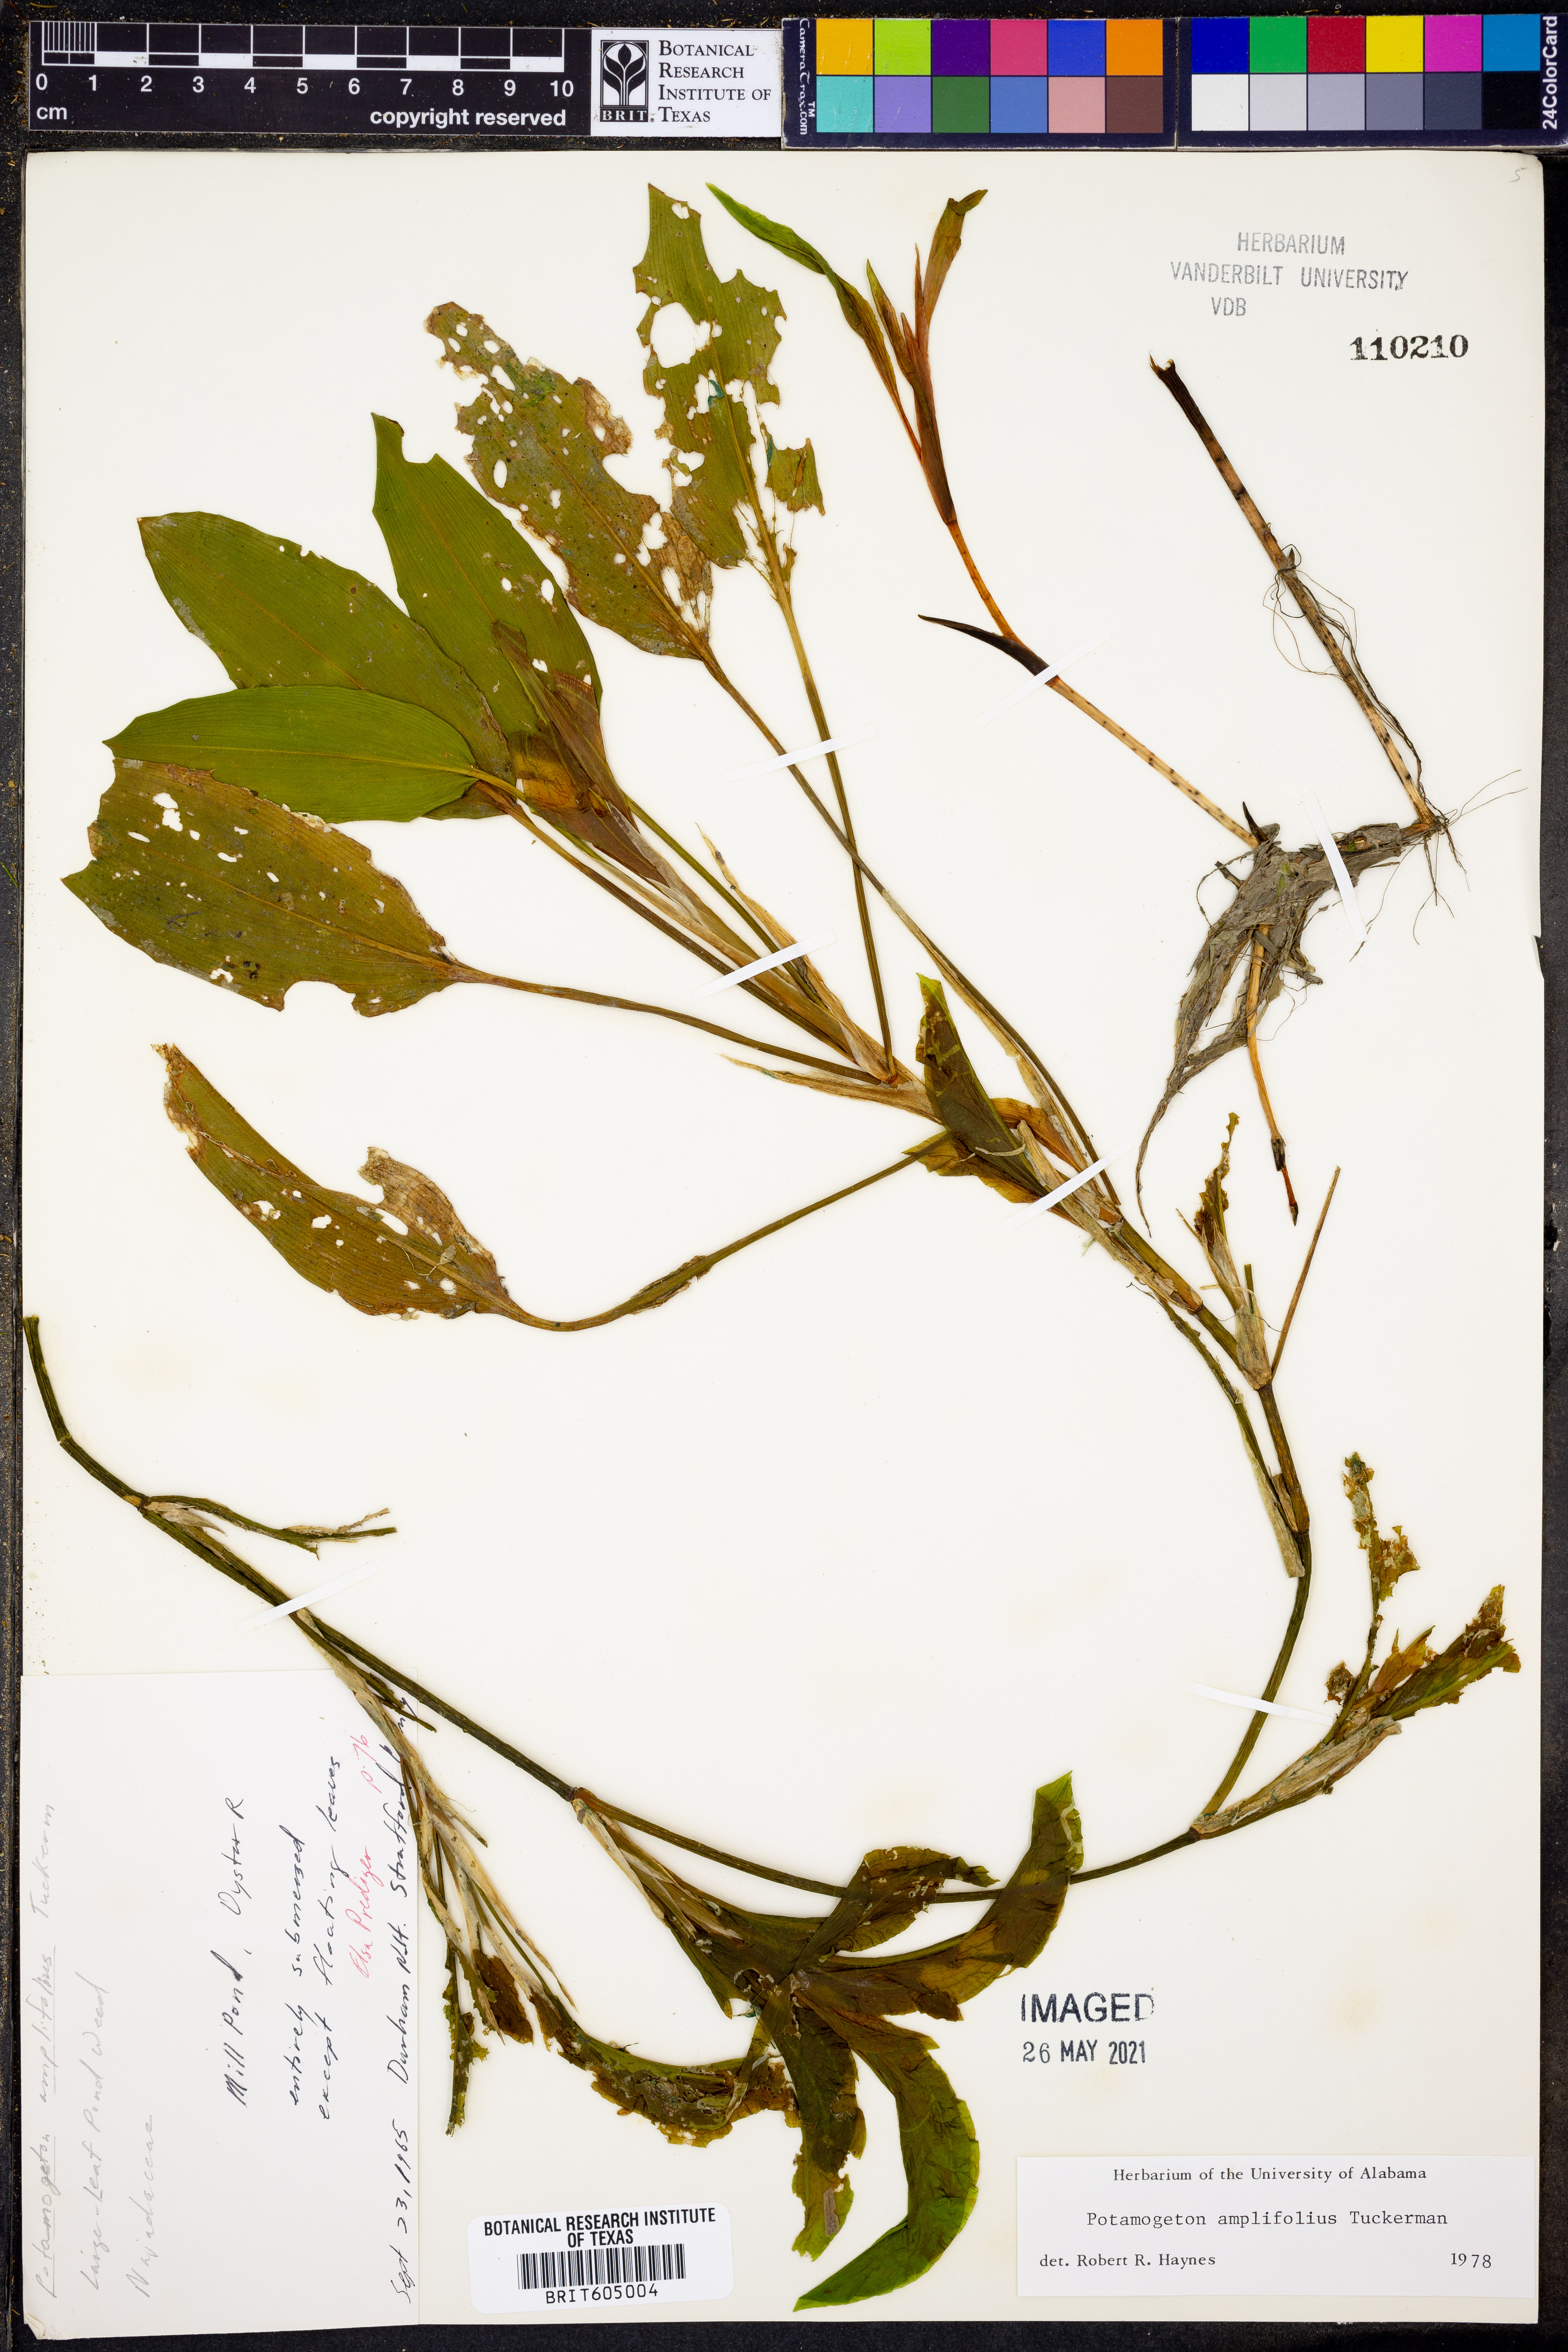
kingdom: Plantae
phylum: Tracheophyta
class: Liliopsida
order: Alismatales
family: Potamogetonaceae
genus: Potamogeton
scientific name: Potamogeton amplifolius
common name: Broad-leaved pondweed
